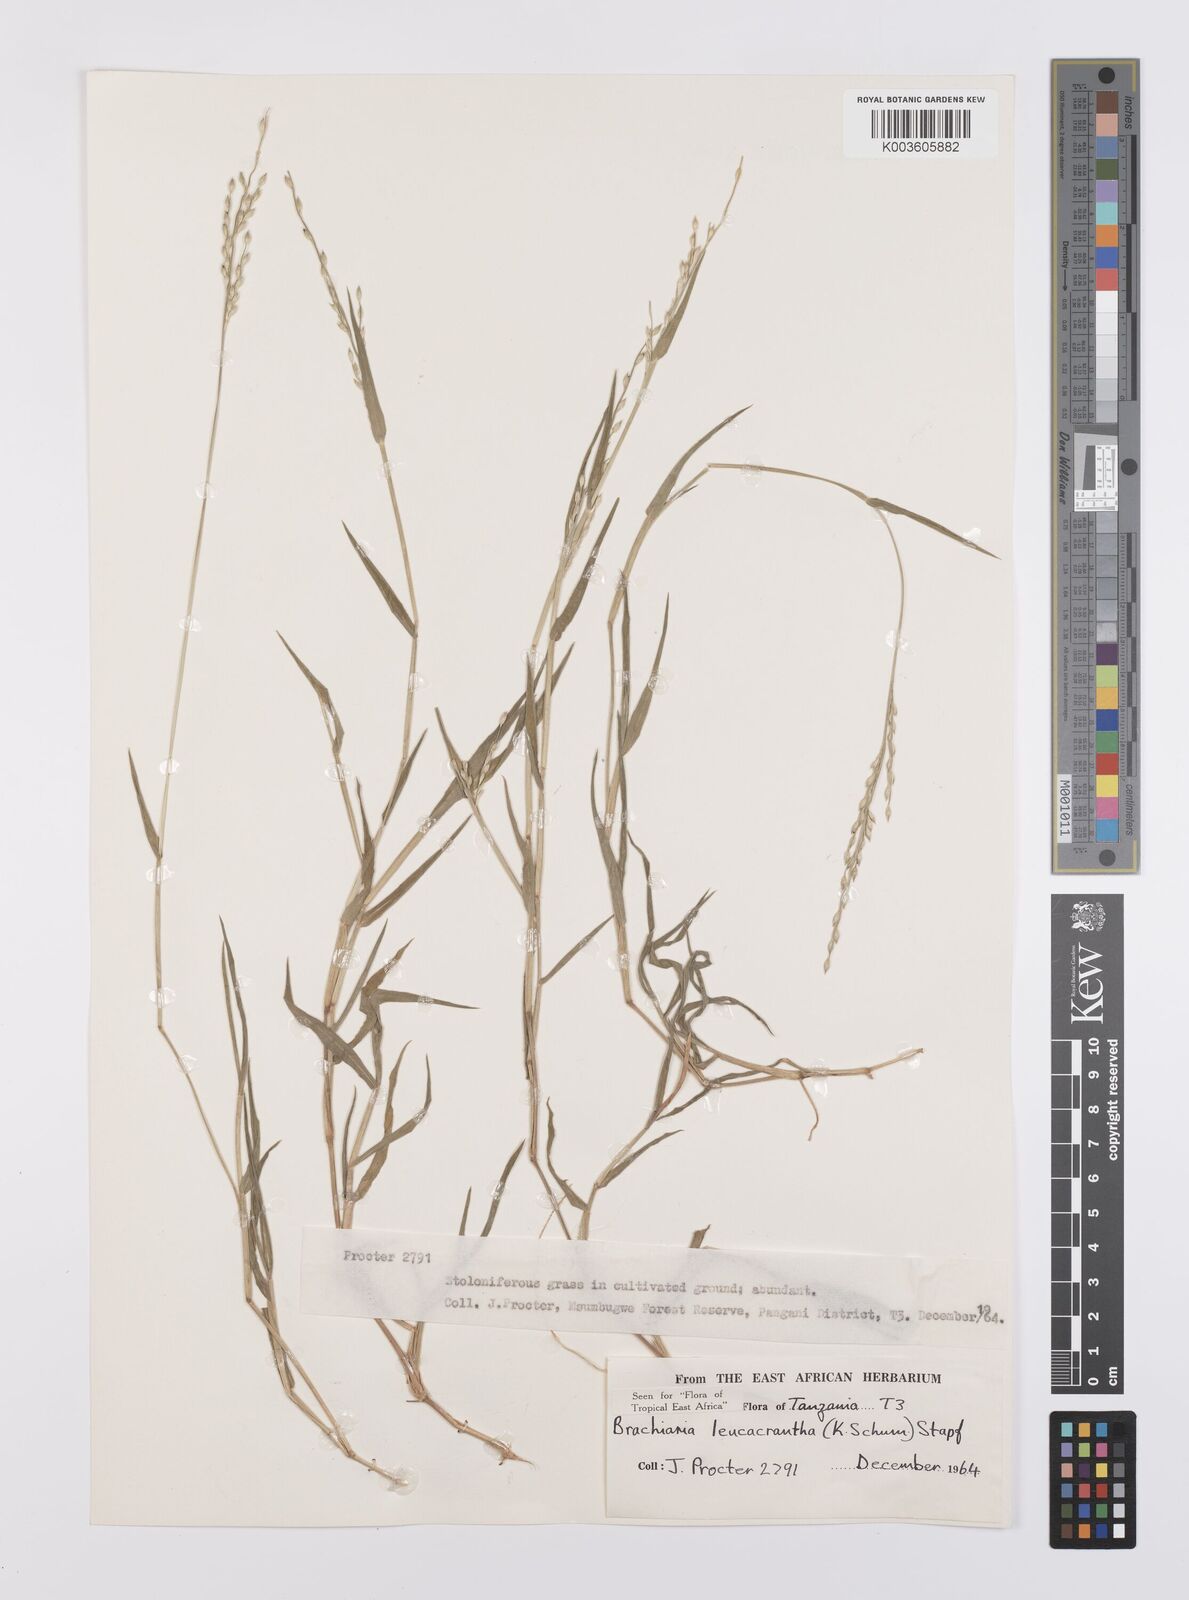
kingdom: Plantae
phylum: Tracheophyta
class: Liliopsida
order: Poales
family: Poaceae
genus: Urochloa
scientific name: Urochloa xantholeuca
